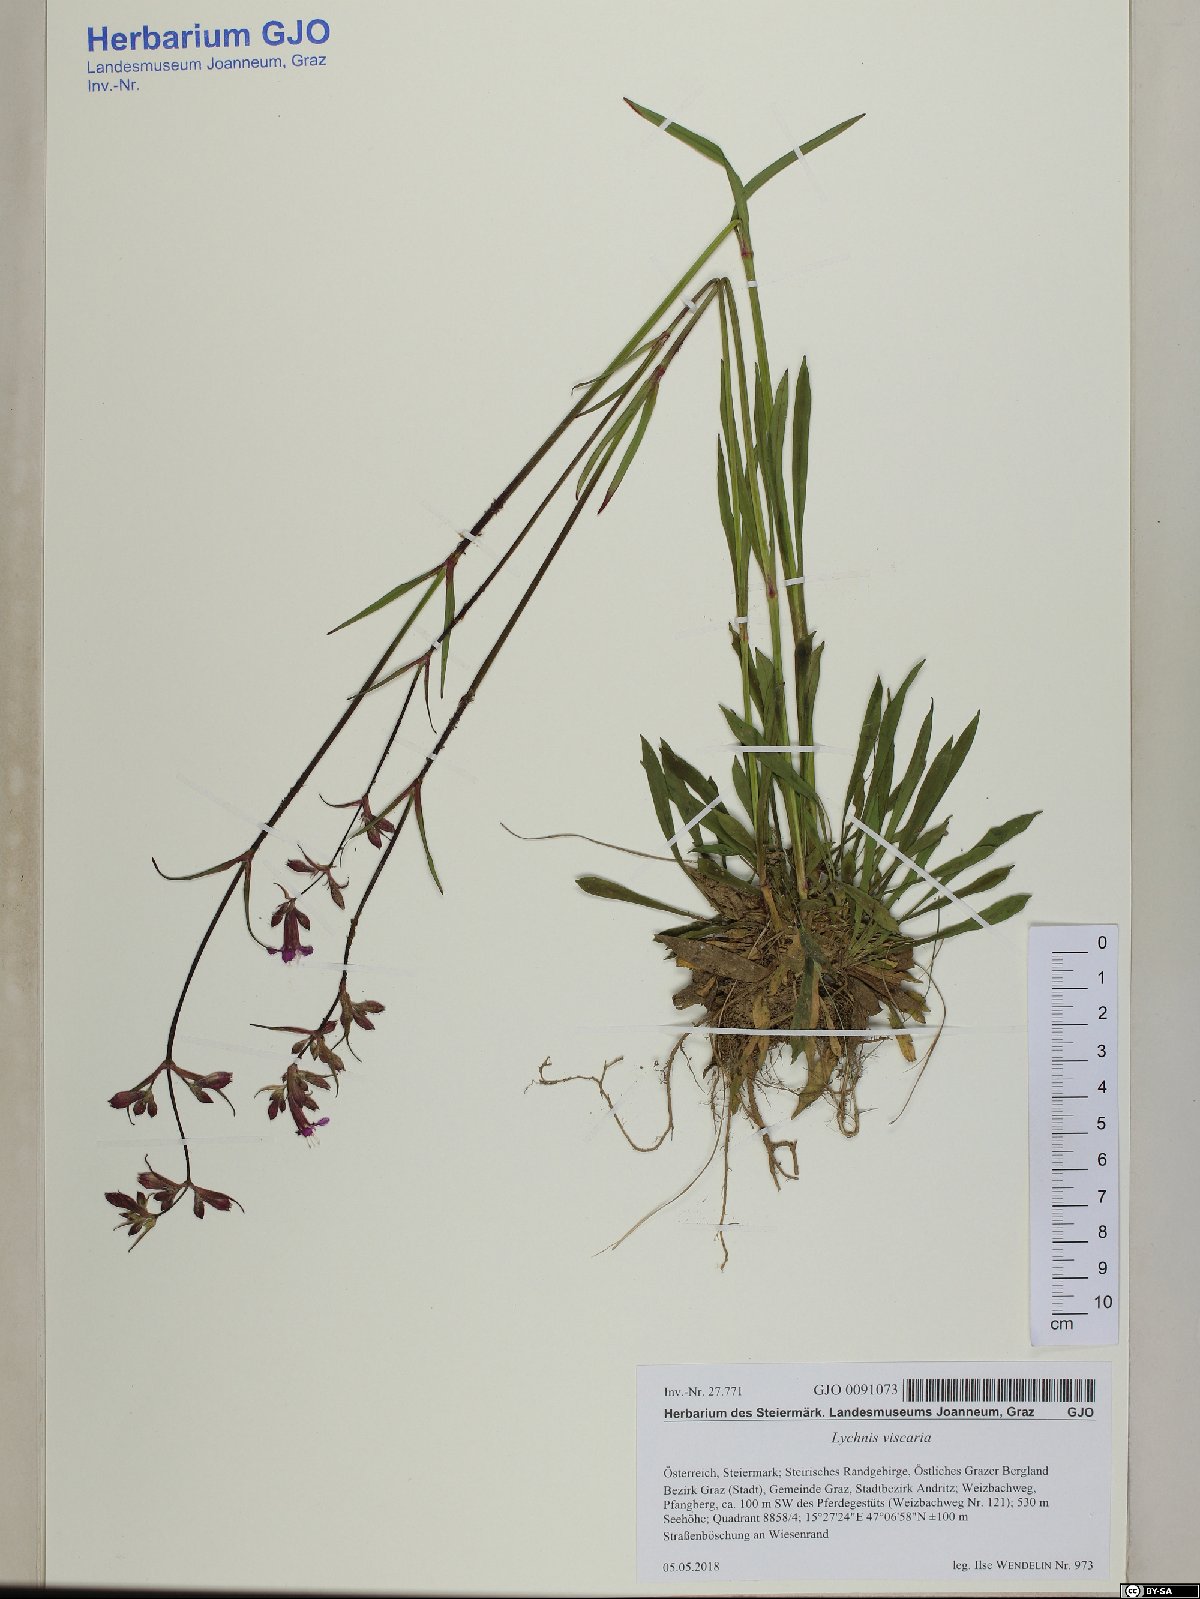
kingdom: Plantae
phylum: Tracheophyta
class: Magnoliopsida
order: Caryophyllales
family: Caryophyllaceae
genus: Viscaria
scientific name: Viscaria vulgaris
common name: Clammy campion
